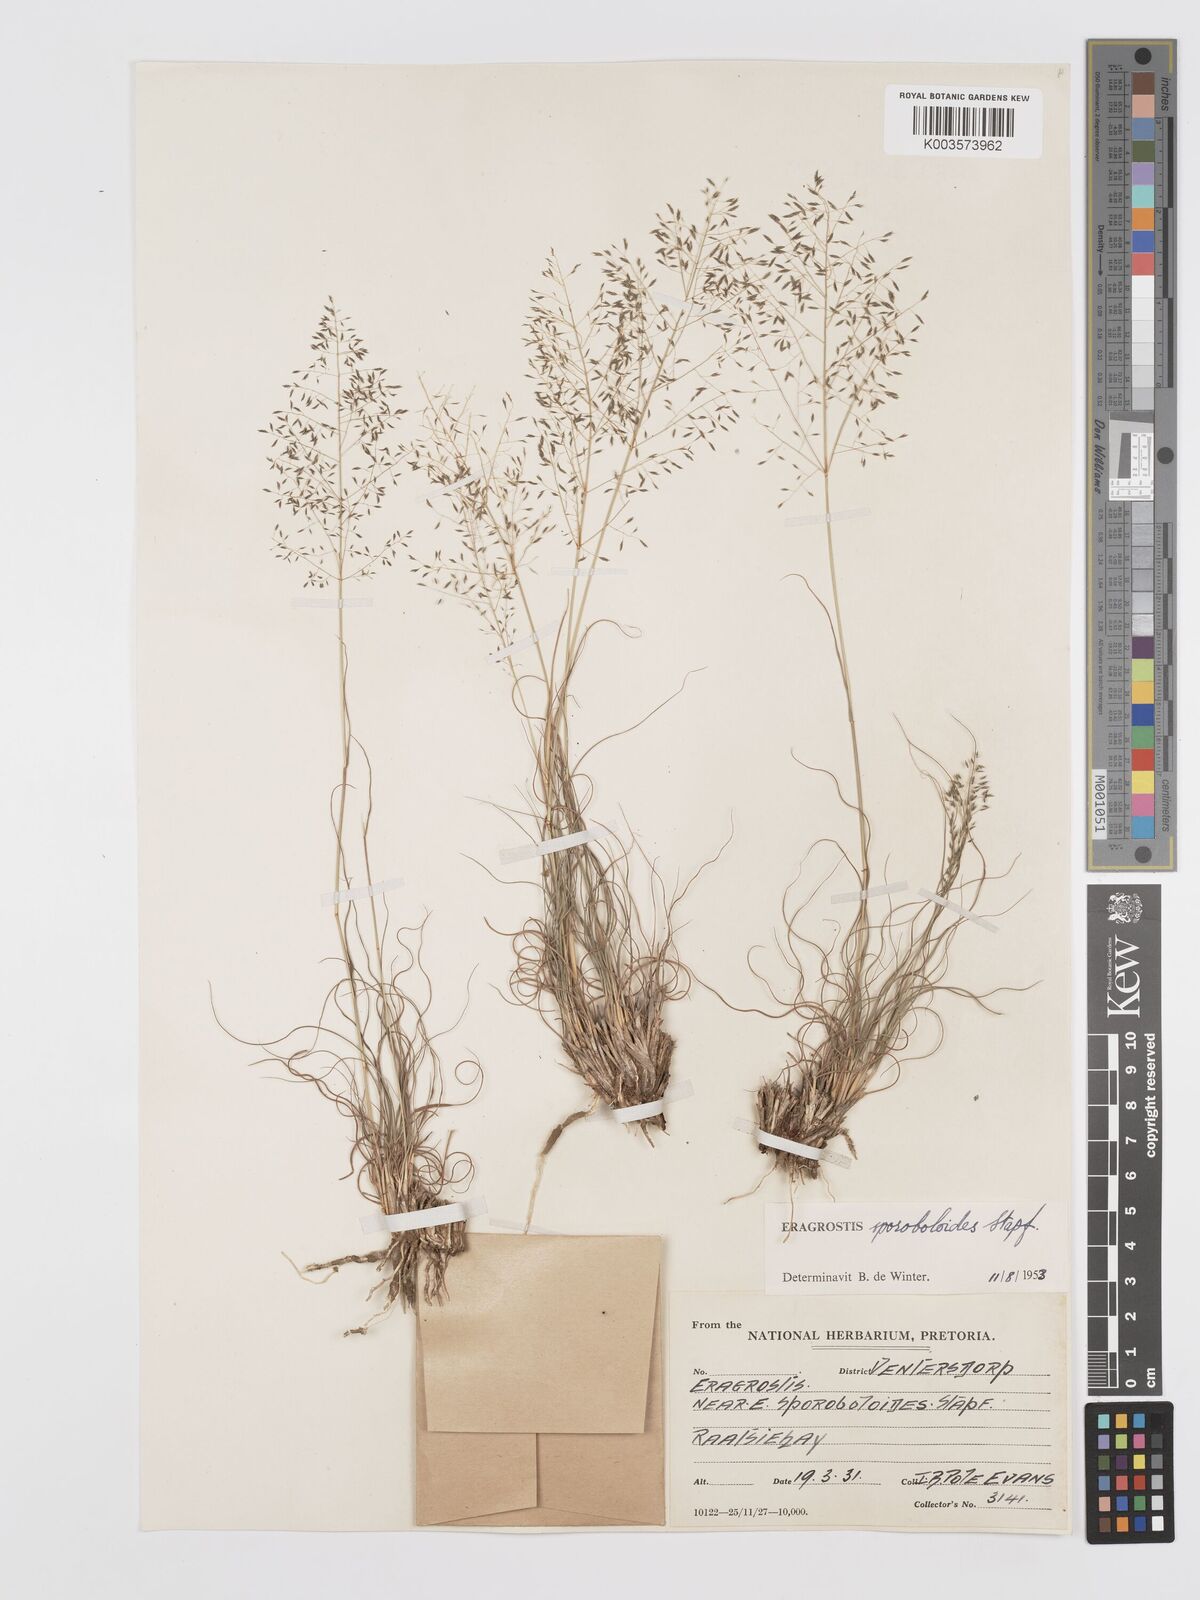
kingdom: Plantae
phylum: Tracheophyta
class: Liliopsida
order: Poales
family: Poaceae
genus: Eragrostis
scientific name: Eragrostis stapfii
